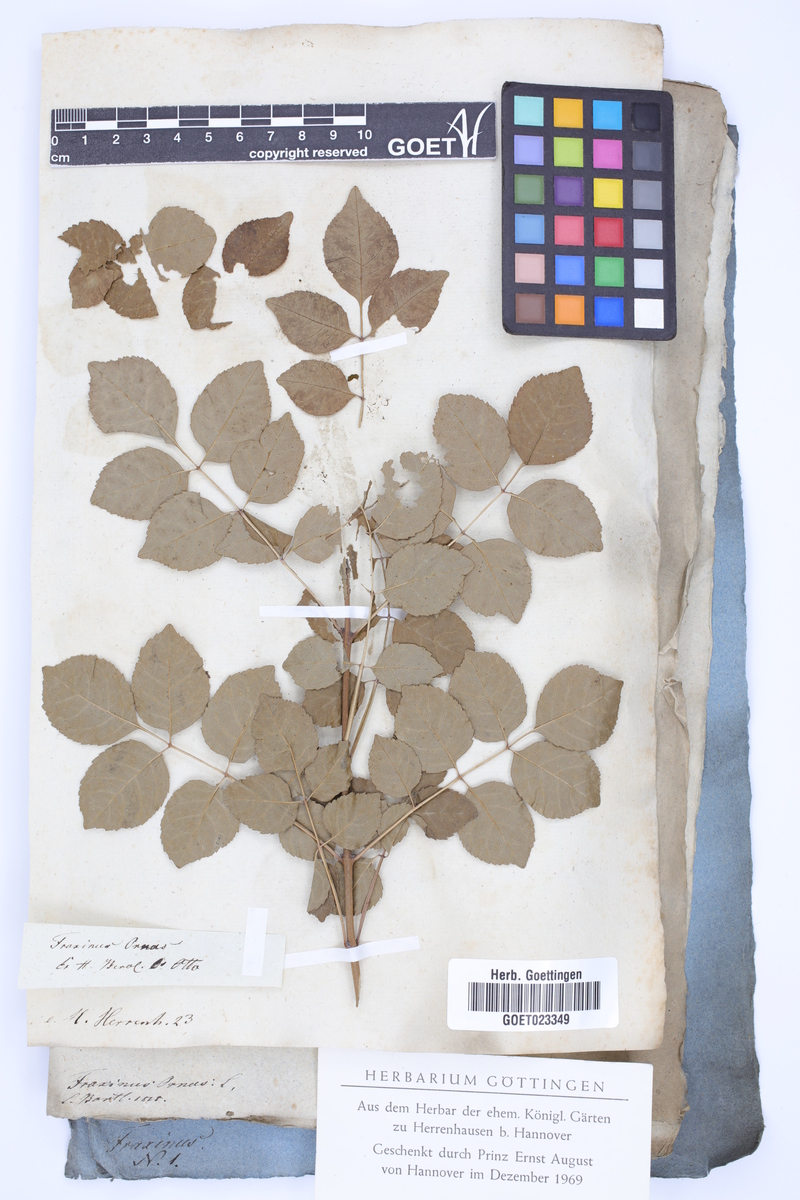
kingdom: Plantae
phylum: Tracheophyta
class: Magnoliopsida
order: Lamiales
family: Oleaceae
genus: Fraxinus
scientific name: Fraxinus ornus
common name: Manna ash
